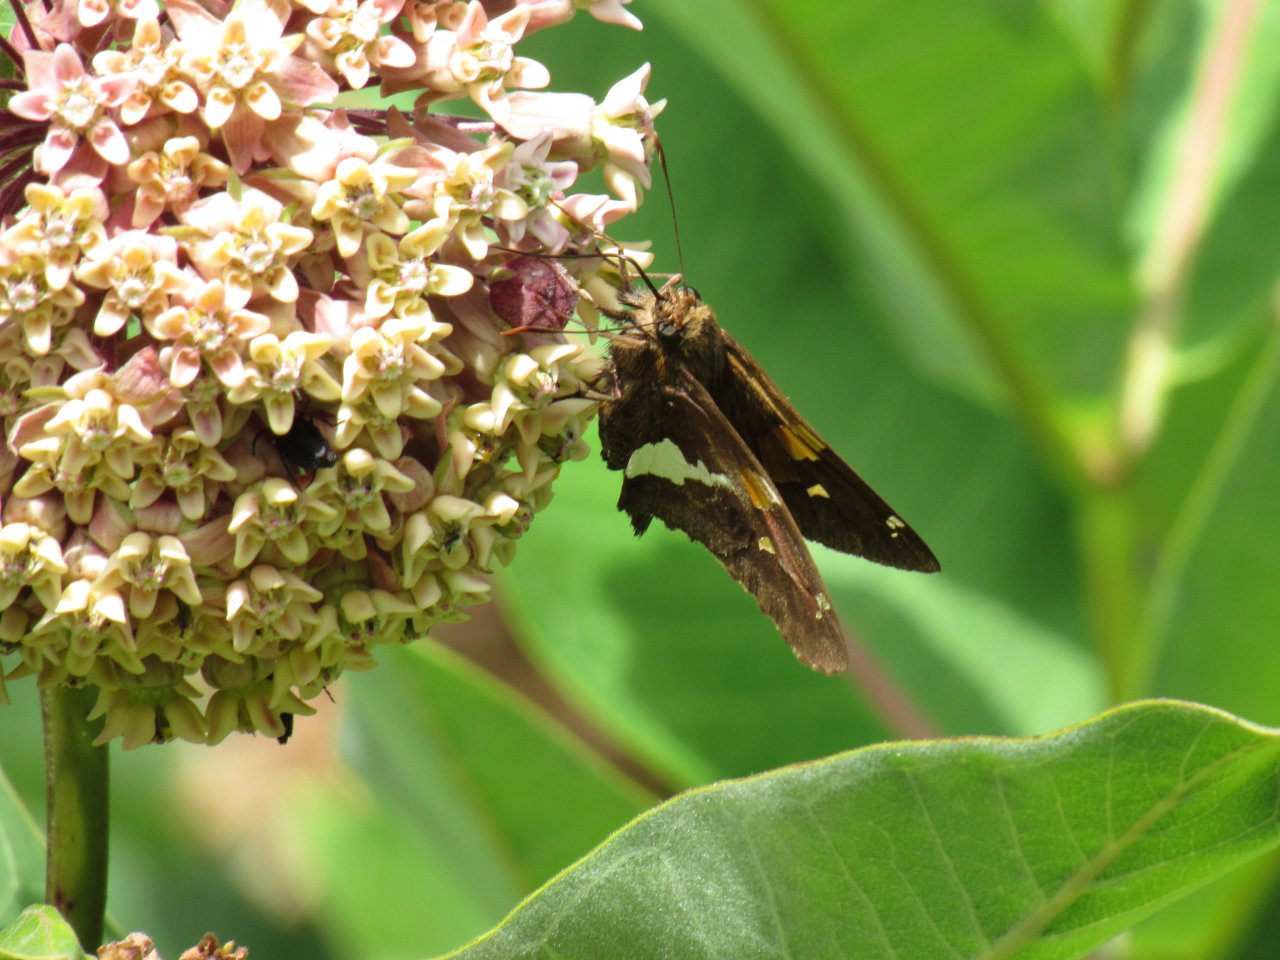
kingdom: Animalia
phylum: Arthropoda
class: Insecta
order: Lepidoptera
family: Hesperiidae
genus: Epargyreus
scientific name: Epargyreus clarus
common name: Silver-spotted Skipper
